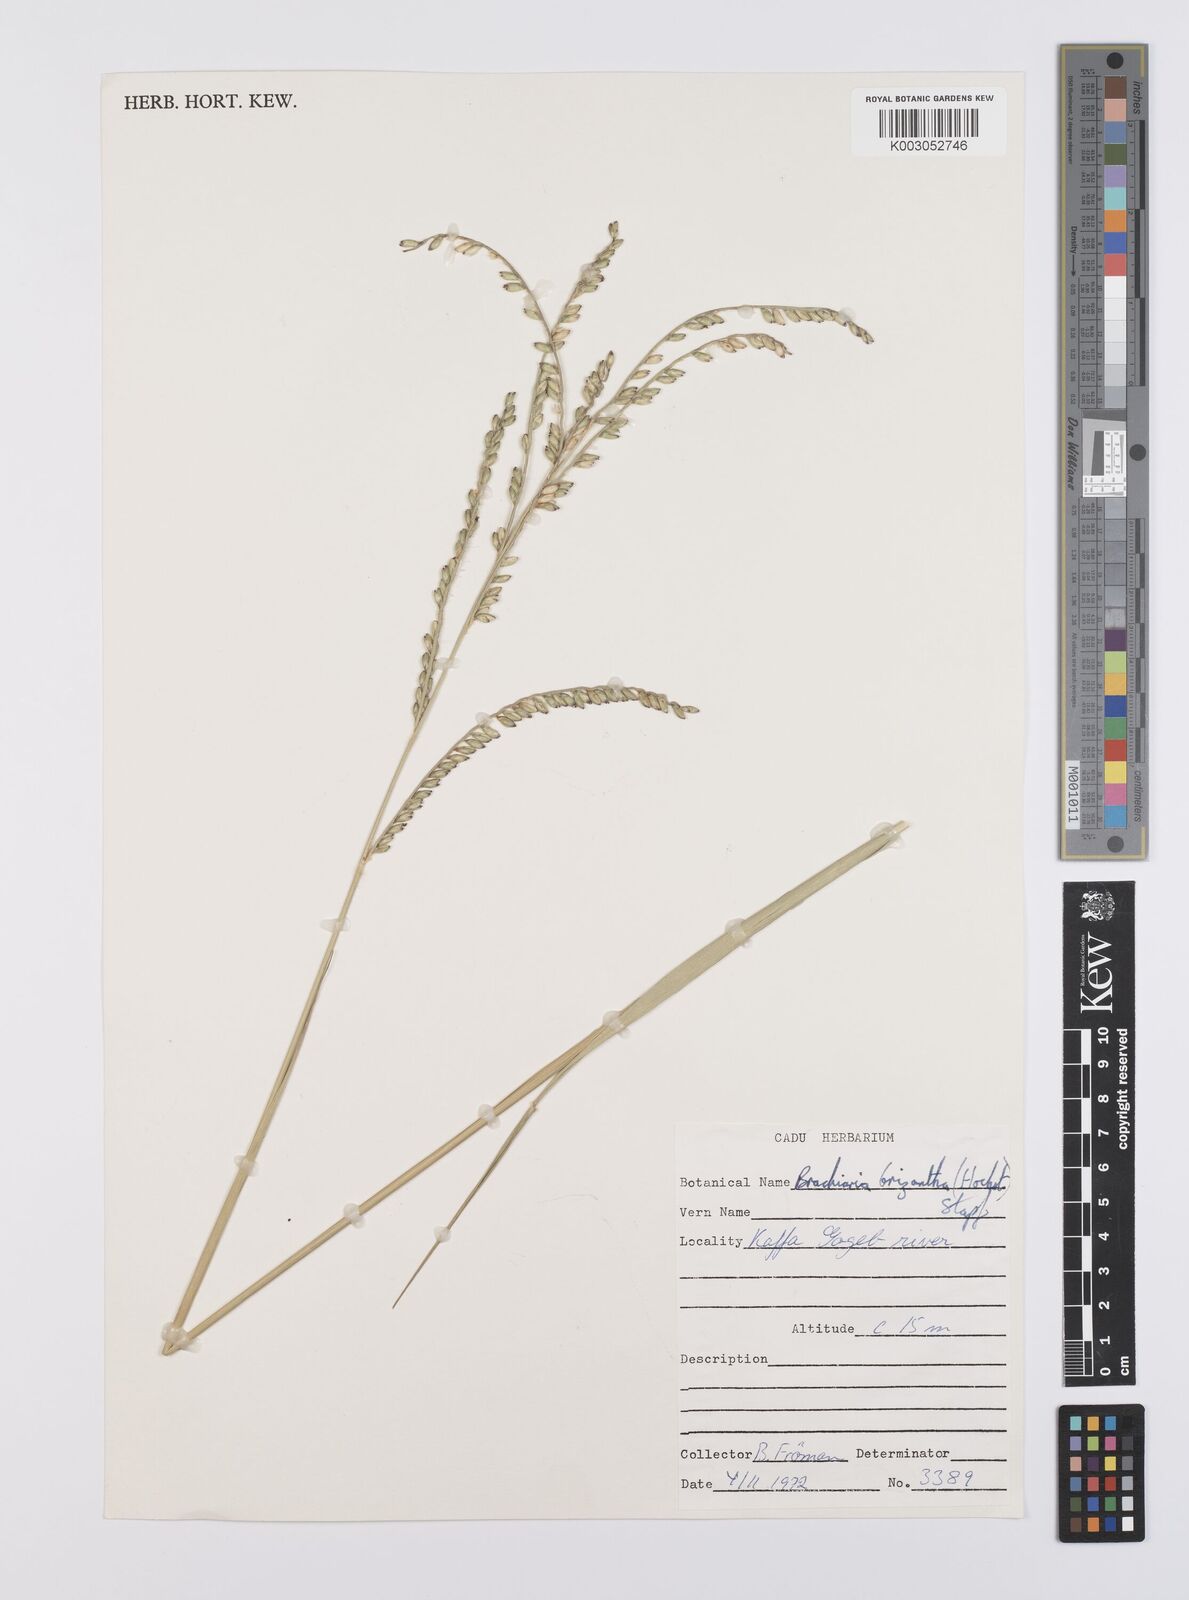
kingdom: Plantae
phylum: Tracheophyta
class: Liliopsida
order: Poales
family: Poaceae
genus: Urochloa
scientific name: Urochloa brizantha
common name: Palisade signalgrass
